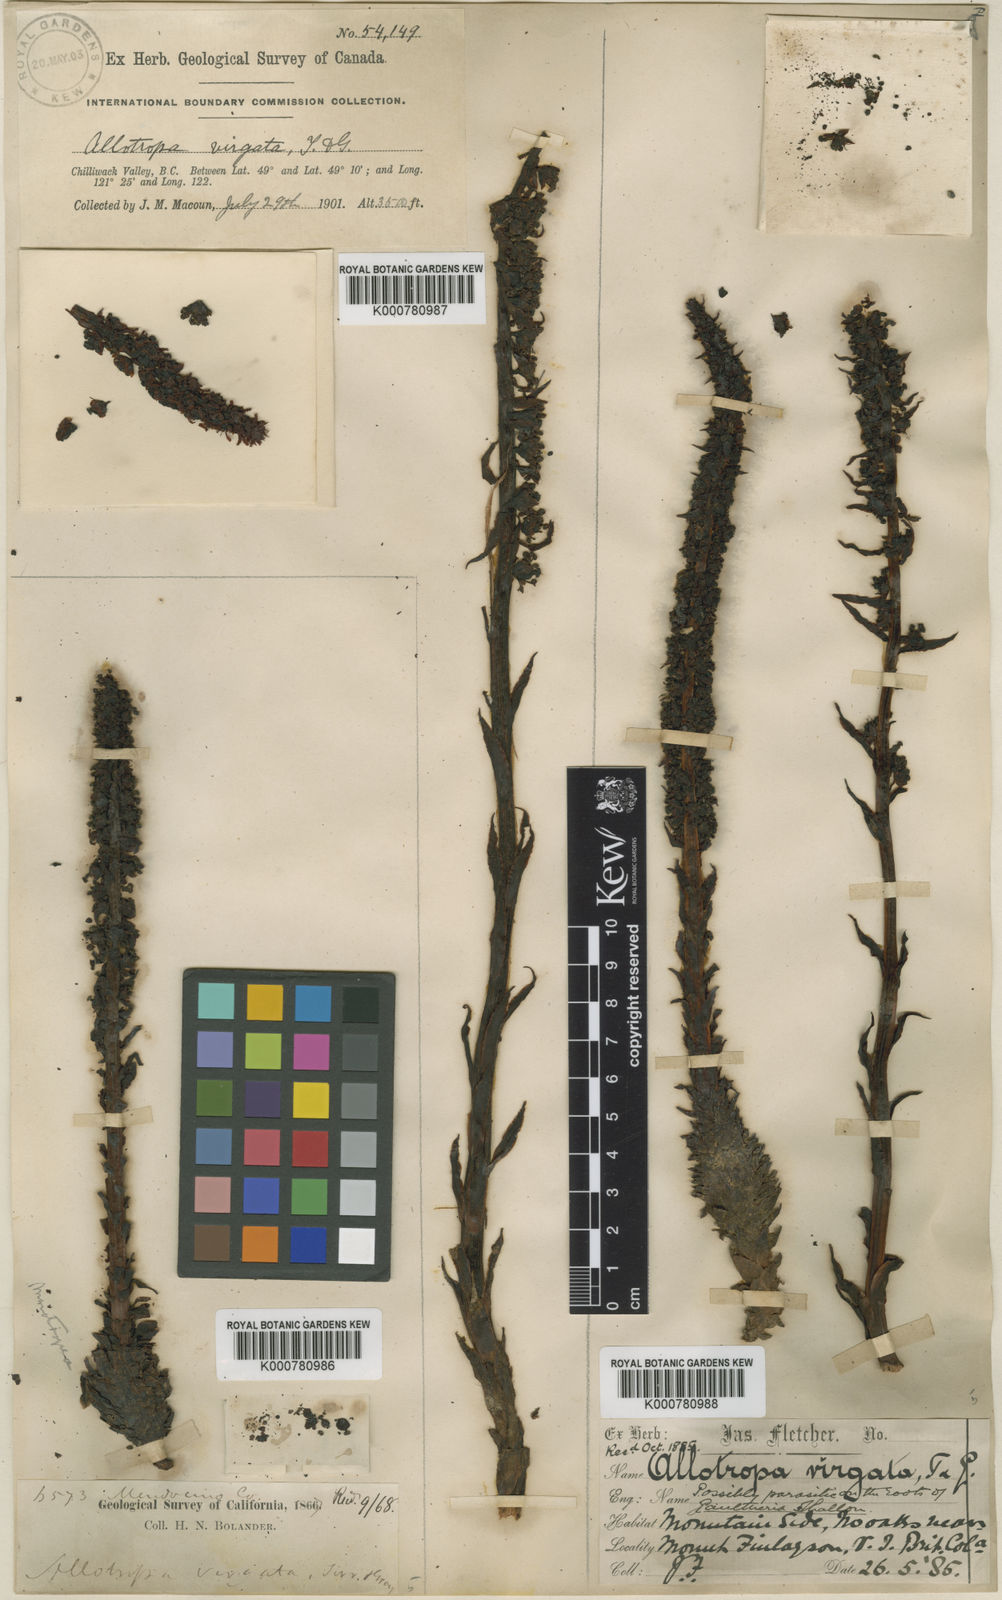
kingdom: Plantae
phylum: Tracheophyta
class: Magnoliopsida
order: Ericales
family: Ericaceae
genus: Allotropa
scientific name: Allotropa virgata
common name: Candy-striped allotropa
